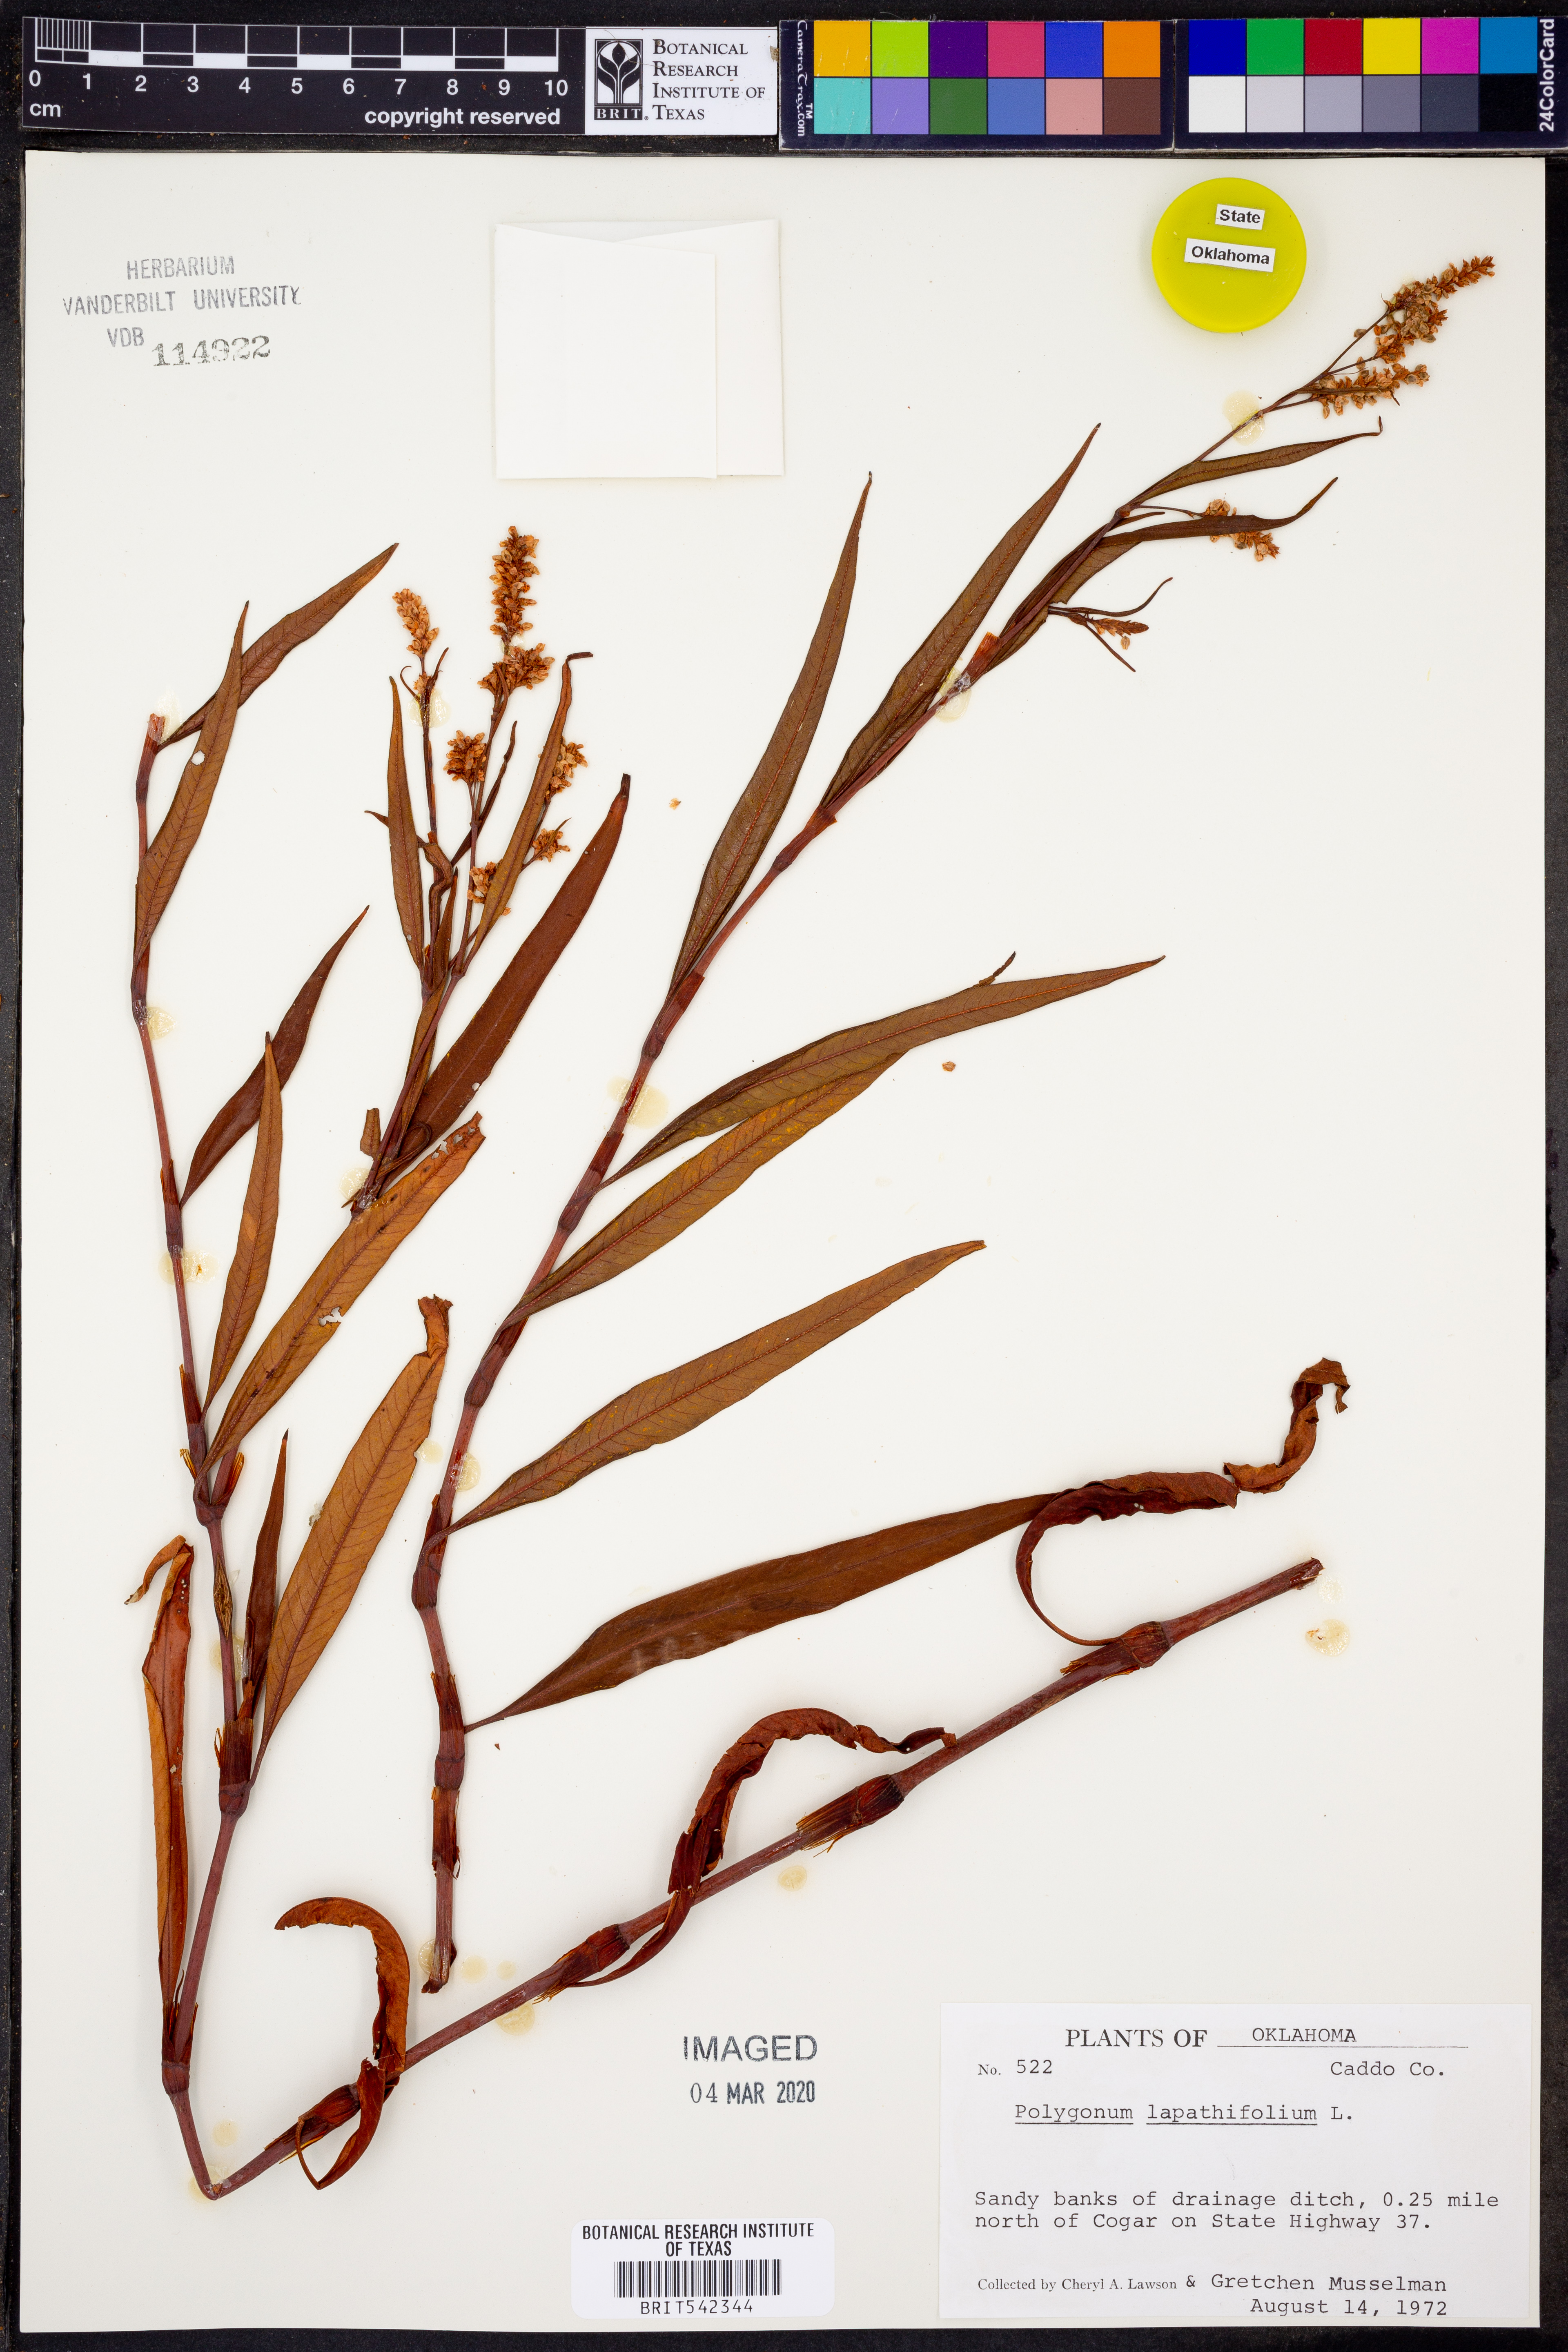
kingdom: Plantae
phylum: Tracheophyta
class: Magnoliopsida
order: Caryophyllales
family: Polygonaceae
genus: Persicaria
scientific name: Persicaria lapathifolia
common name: Curlytop knotweed
